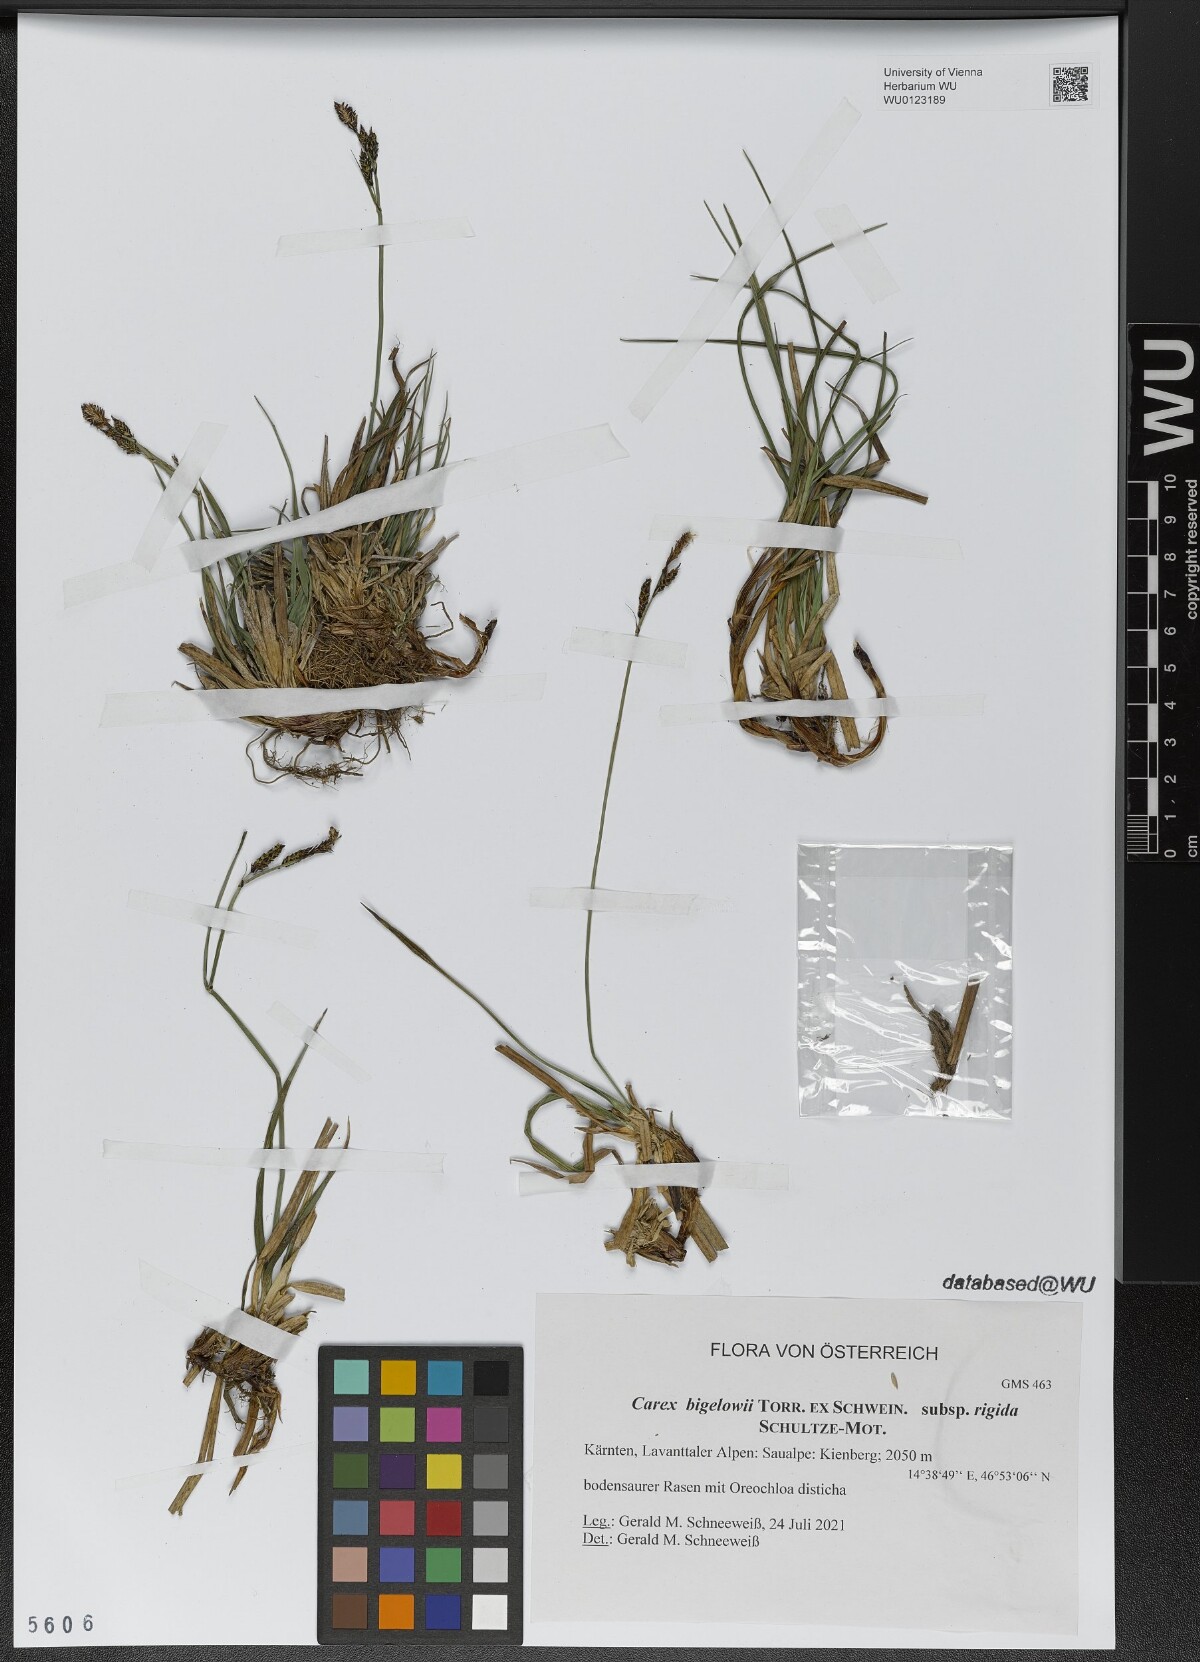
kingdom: Plantae
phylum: Tracheophyta
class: Liliopsida
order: Poales
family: Cyperaceae
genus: Carex
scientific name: Carex bigelowii
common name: Stiff sedge
